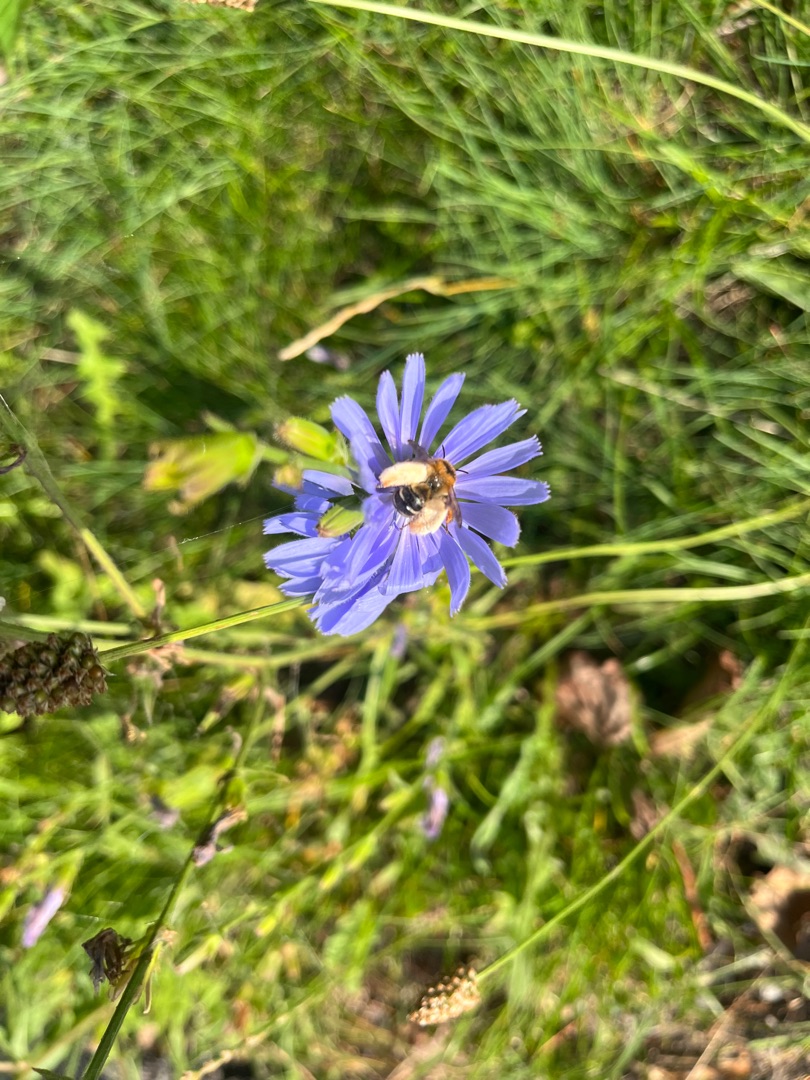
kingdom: Plantae
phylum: Tracheophyta
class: Magnoliopsida
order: Asterales
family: Asteraceae
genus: Cichorium
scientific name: Cichorium intybus
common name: Cikorie
